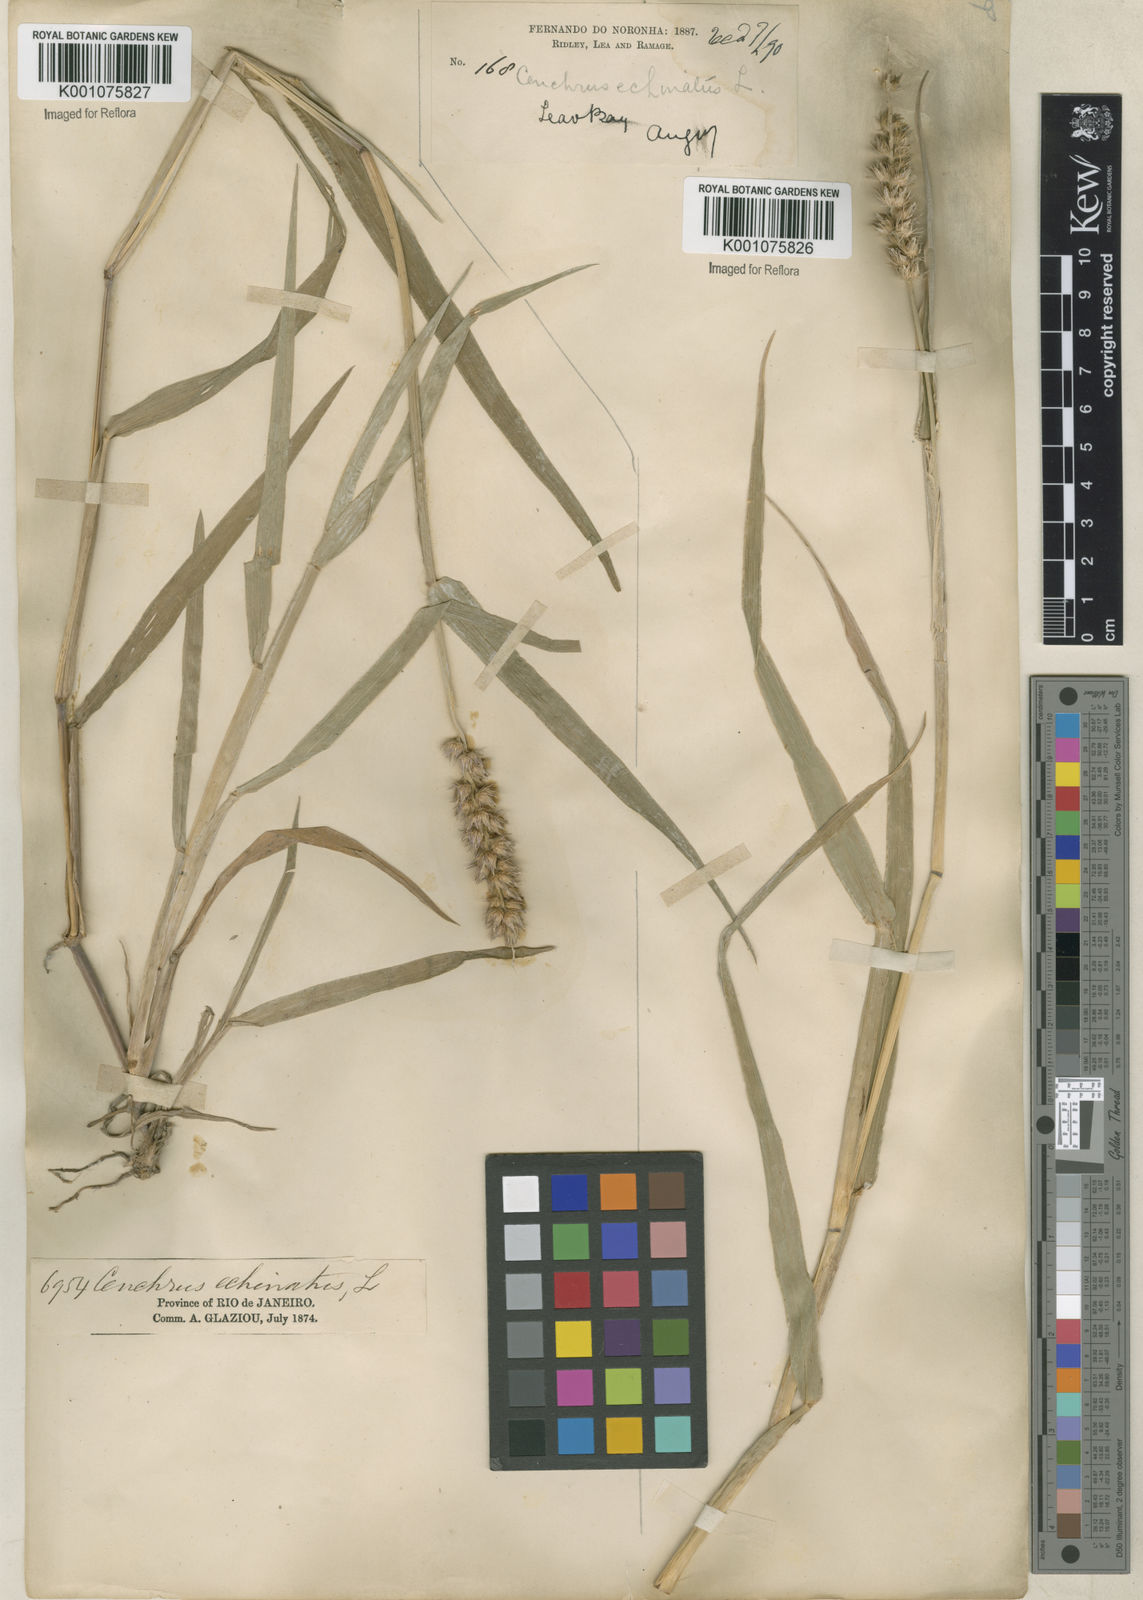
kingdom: Plantae
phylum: Tracheophyta
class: Liliopsida
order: Poales
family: Poaceae
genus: Cenchrus
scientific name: Cenchrus echinatus
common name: Southern sandbur
